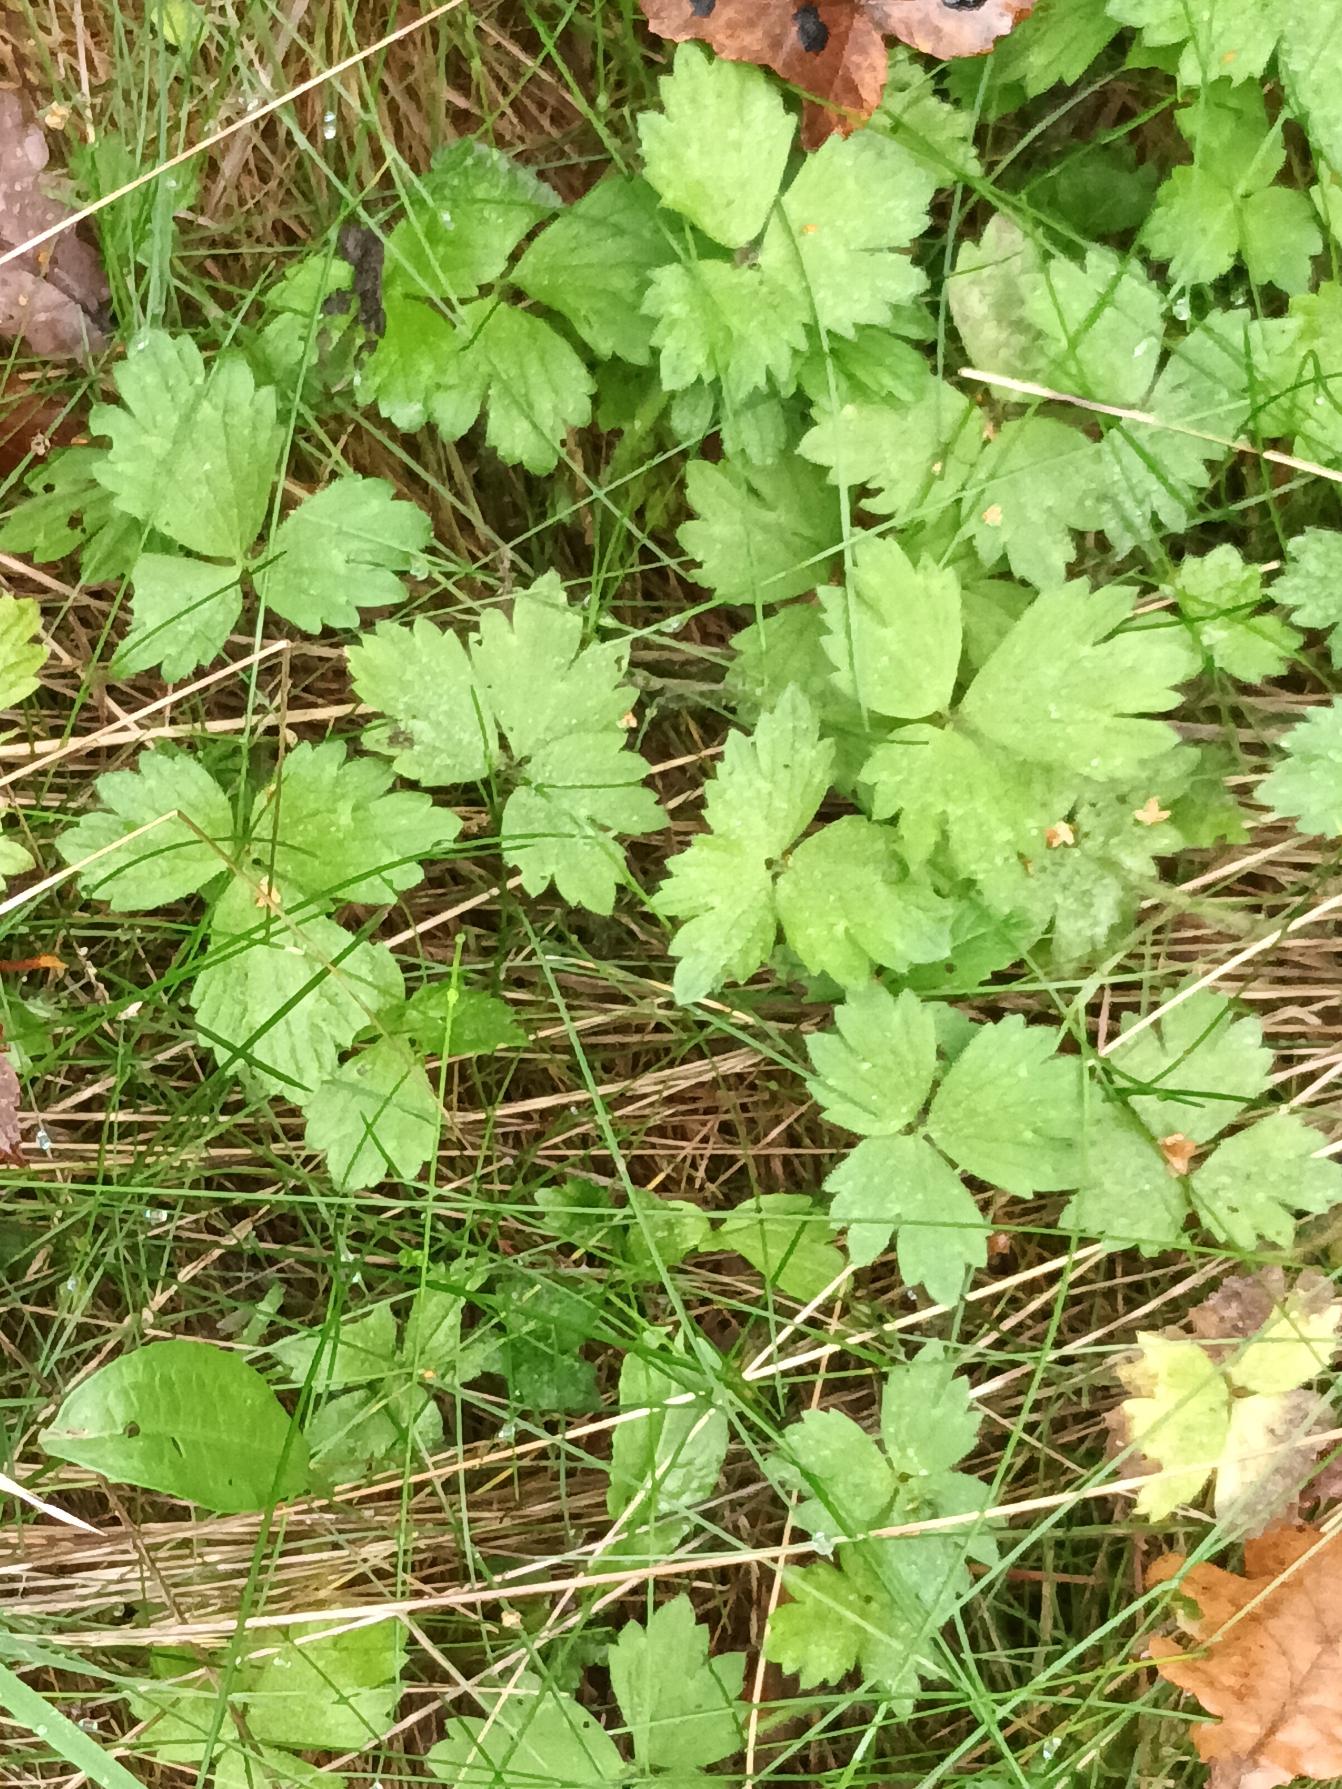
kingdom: Plantae
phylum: Tracheophyta
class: Magnoliopsida
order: Ranunculales
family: Ranunculaceae
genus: Ranunculus
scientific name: Ranunculus repens
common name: Lav ranunkel
